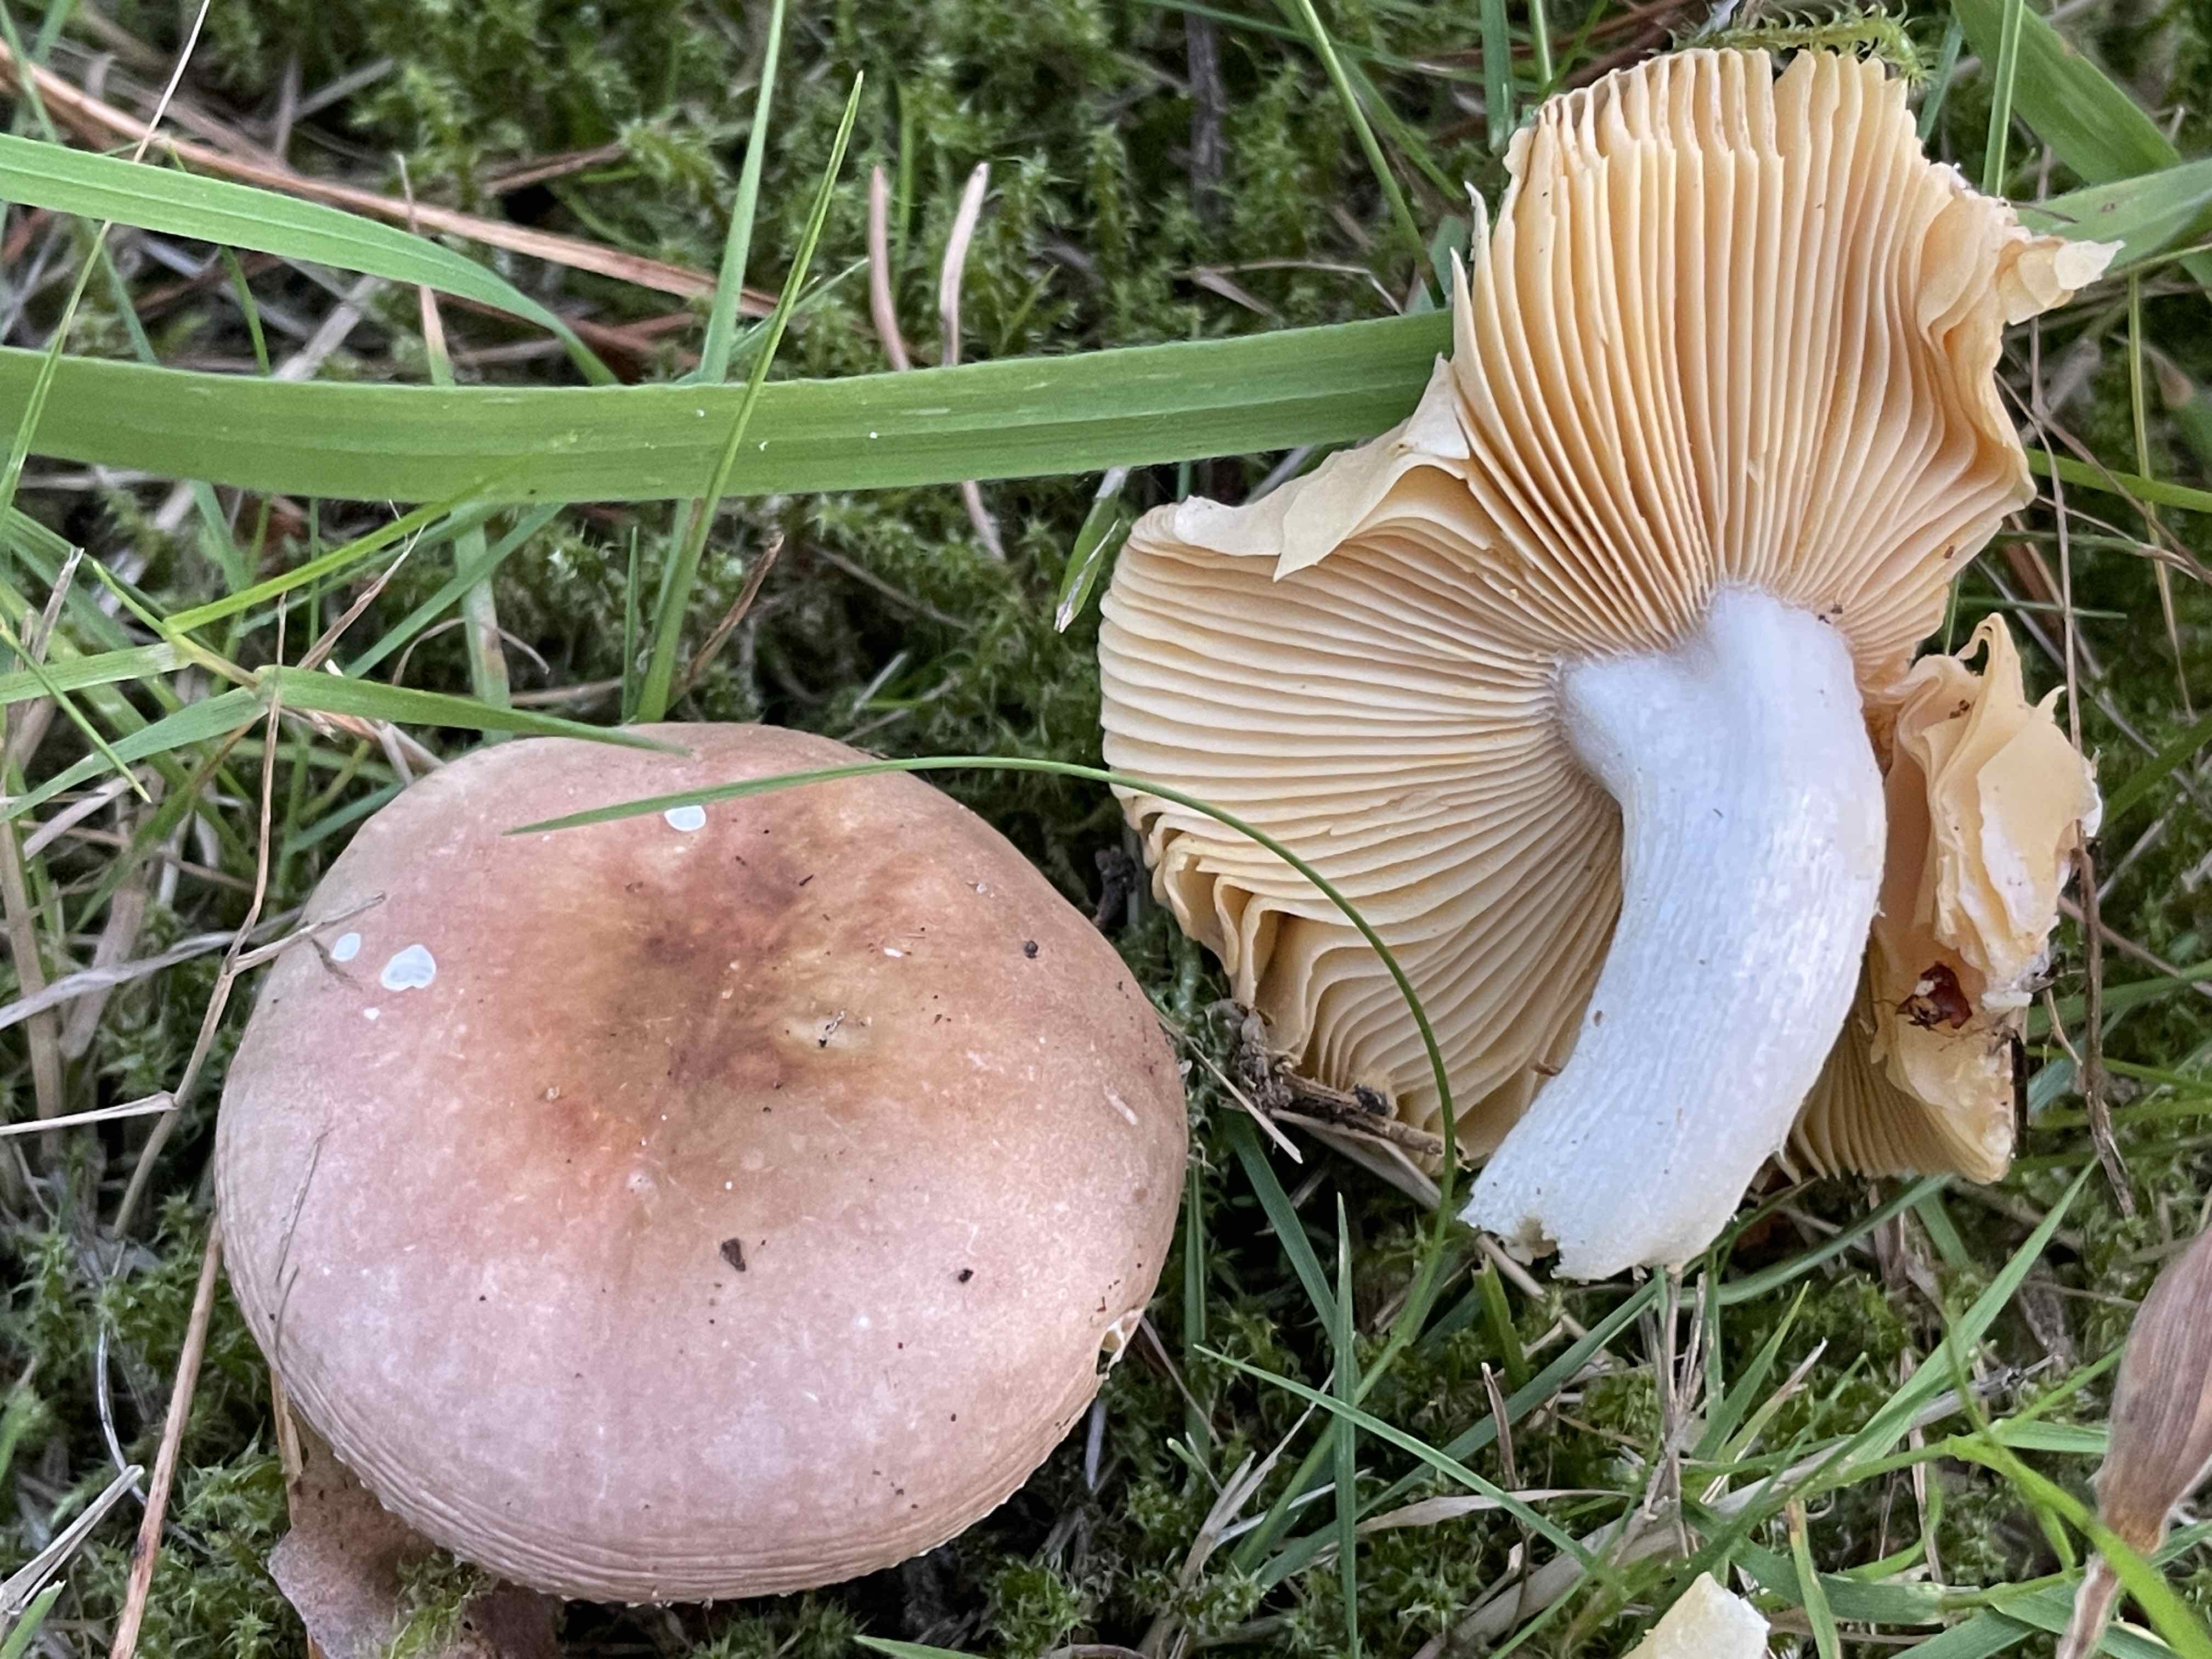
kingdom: Fungi
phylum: Basidiomycota
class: Agaricomycetes
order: Russulales
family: Russulaceae
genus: Russula
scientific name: Russula cessans
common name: fyrre-skørhat
